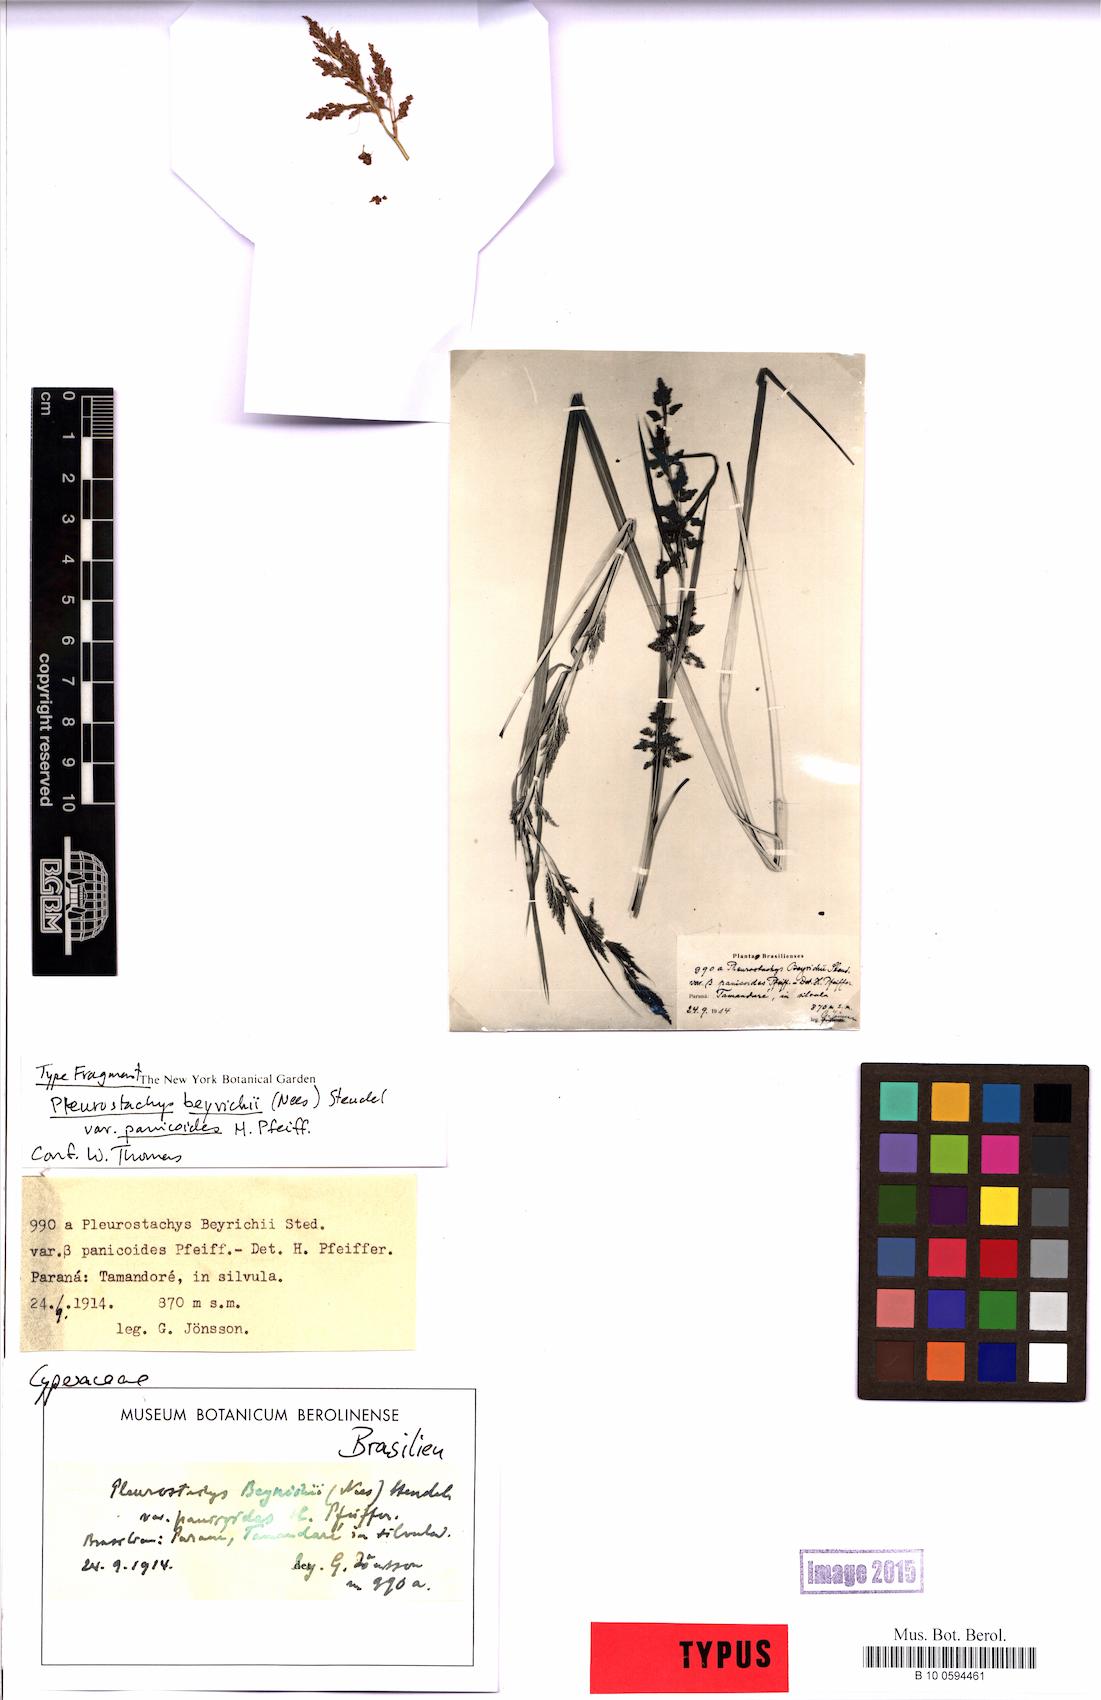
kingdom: Plantae
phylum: Tracheophyta
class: Liliopsida
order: Poales
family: Cyperaceae
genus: Rhynchospora
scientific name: Rhynchospora fluminensis
